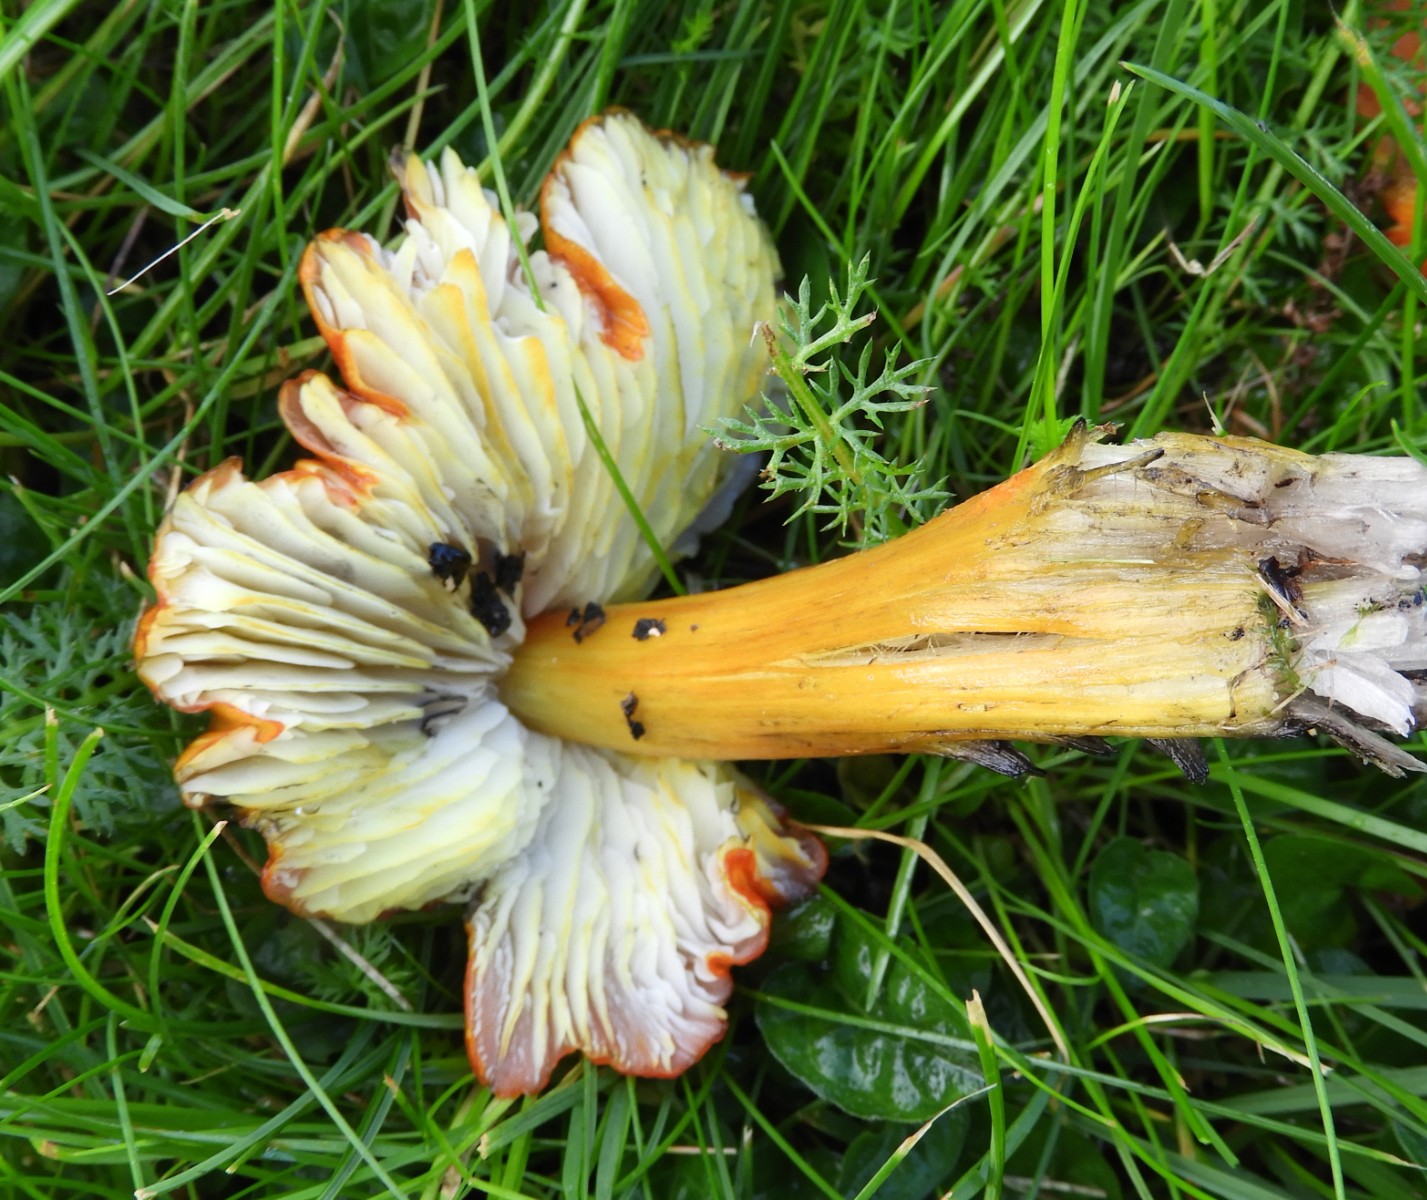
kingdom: Fungi
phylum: Basidiomycota
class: Agaricomycetes
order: Agaricales
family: Hygrophoraceae
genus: Hygrocybe
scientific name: Hygrocybe conica
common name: kegle-vokshat
